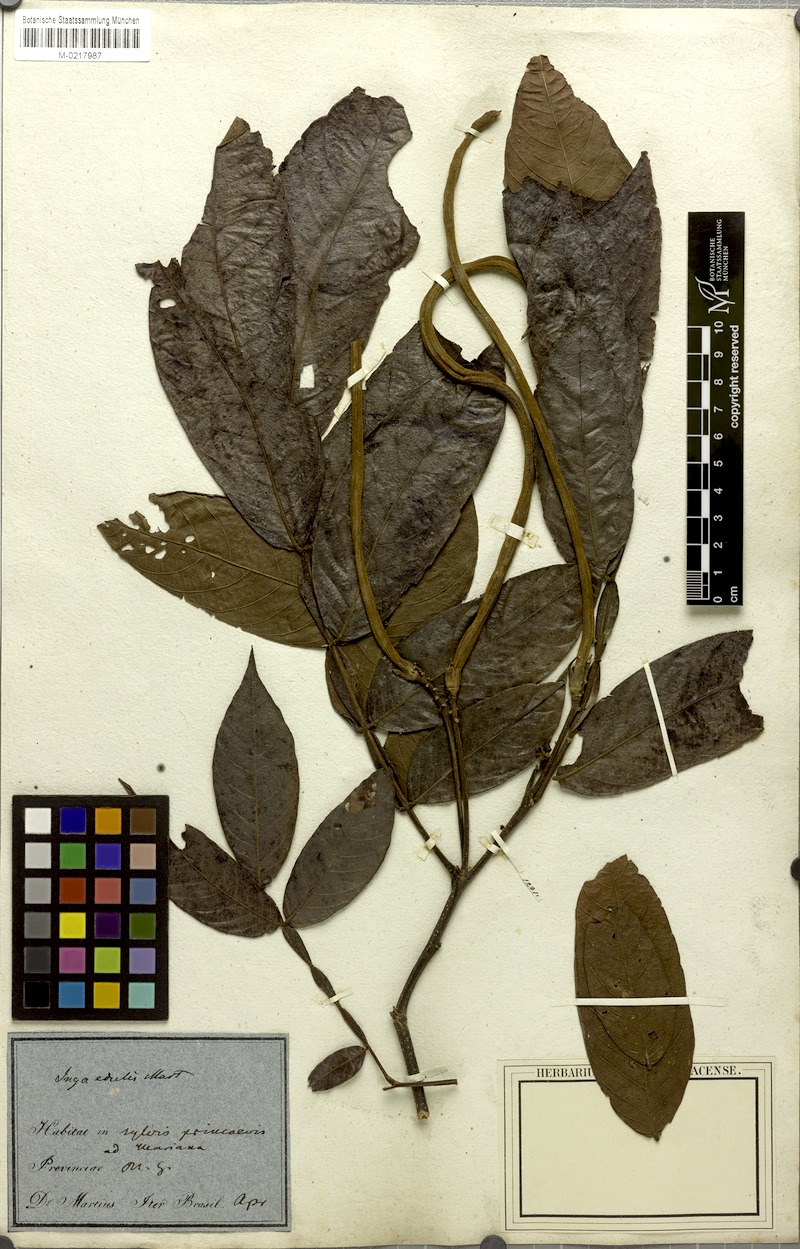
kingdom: Plantae
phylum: Tracheophyta
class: Magnoliopsida
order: Fabales
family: Fabaceae
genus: Inga
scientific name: Inga edulis
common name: Ice cream bean
